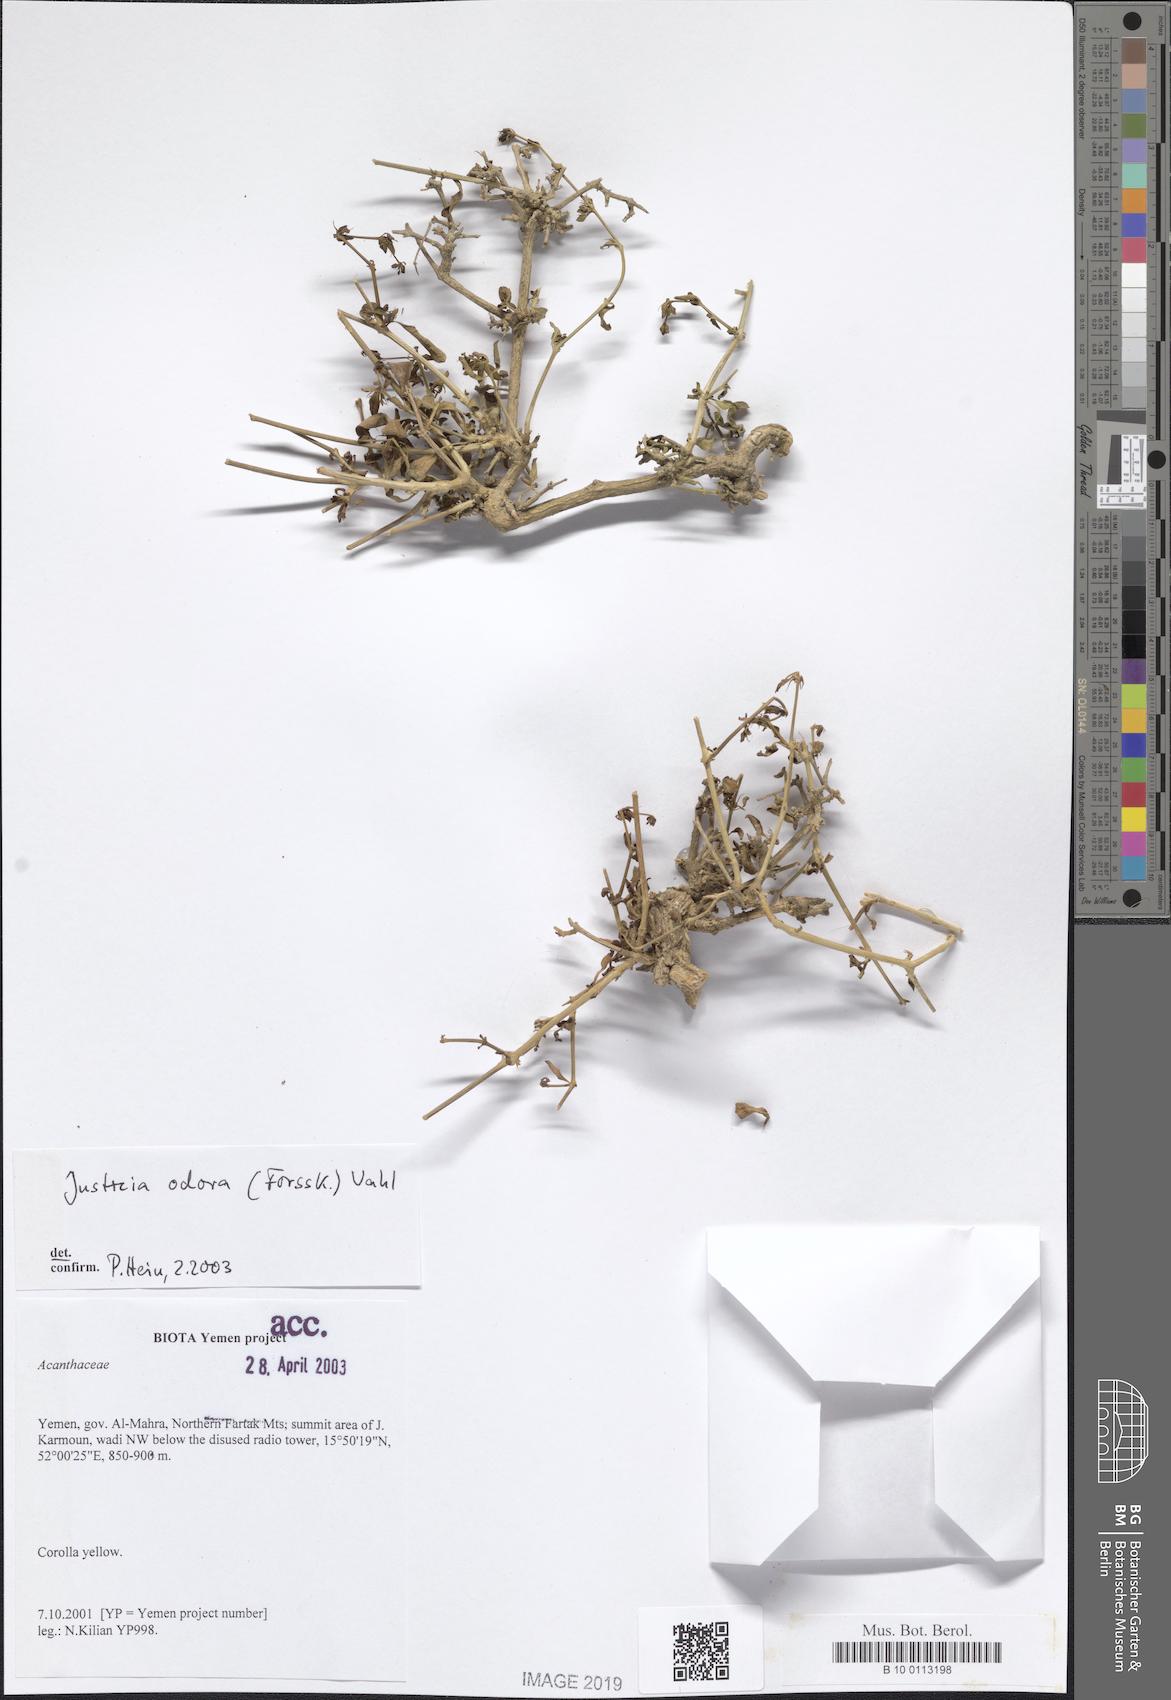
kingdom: Plantae
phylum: Tracheophyta
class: Magnoliopsida
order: Lamiales
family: Acanthaceae
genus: Justicia
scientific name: Justicia odora
